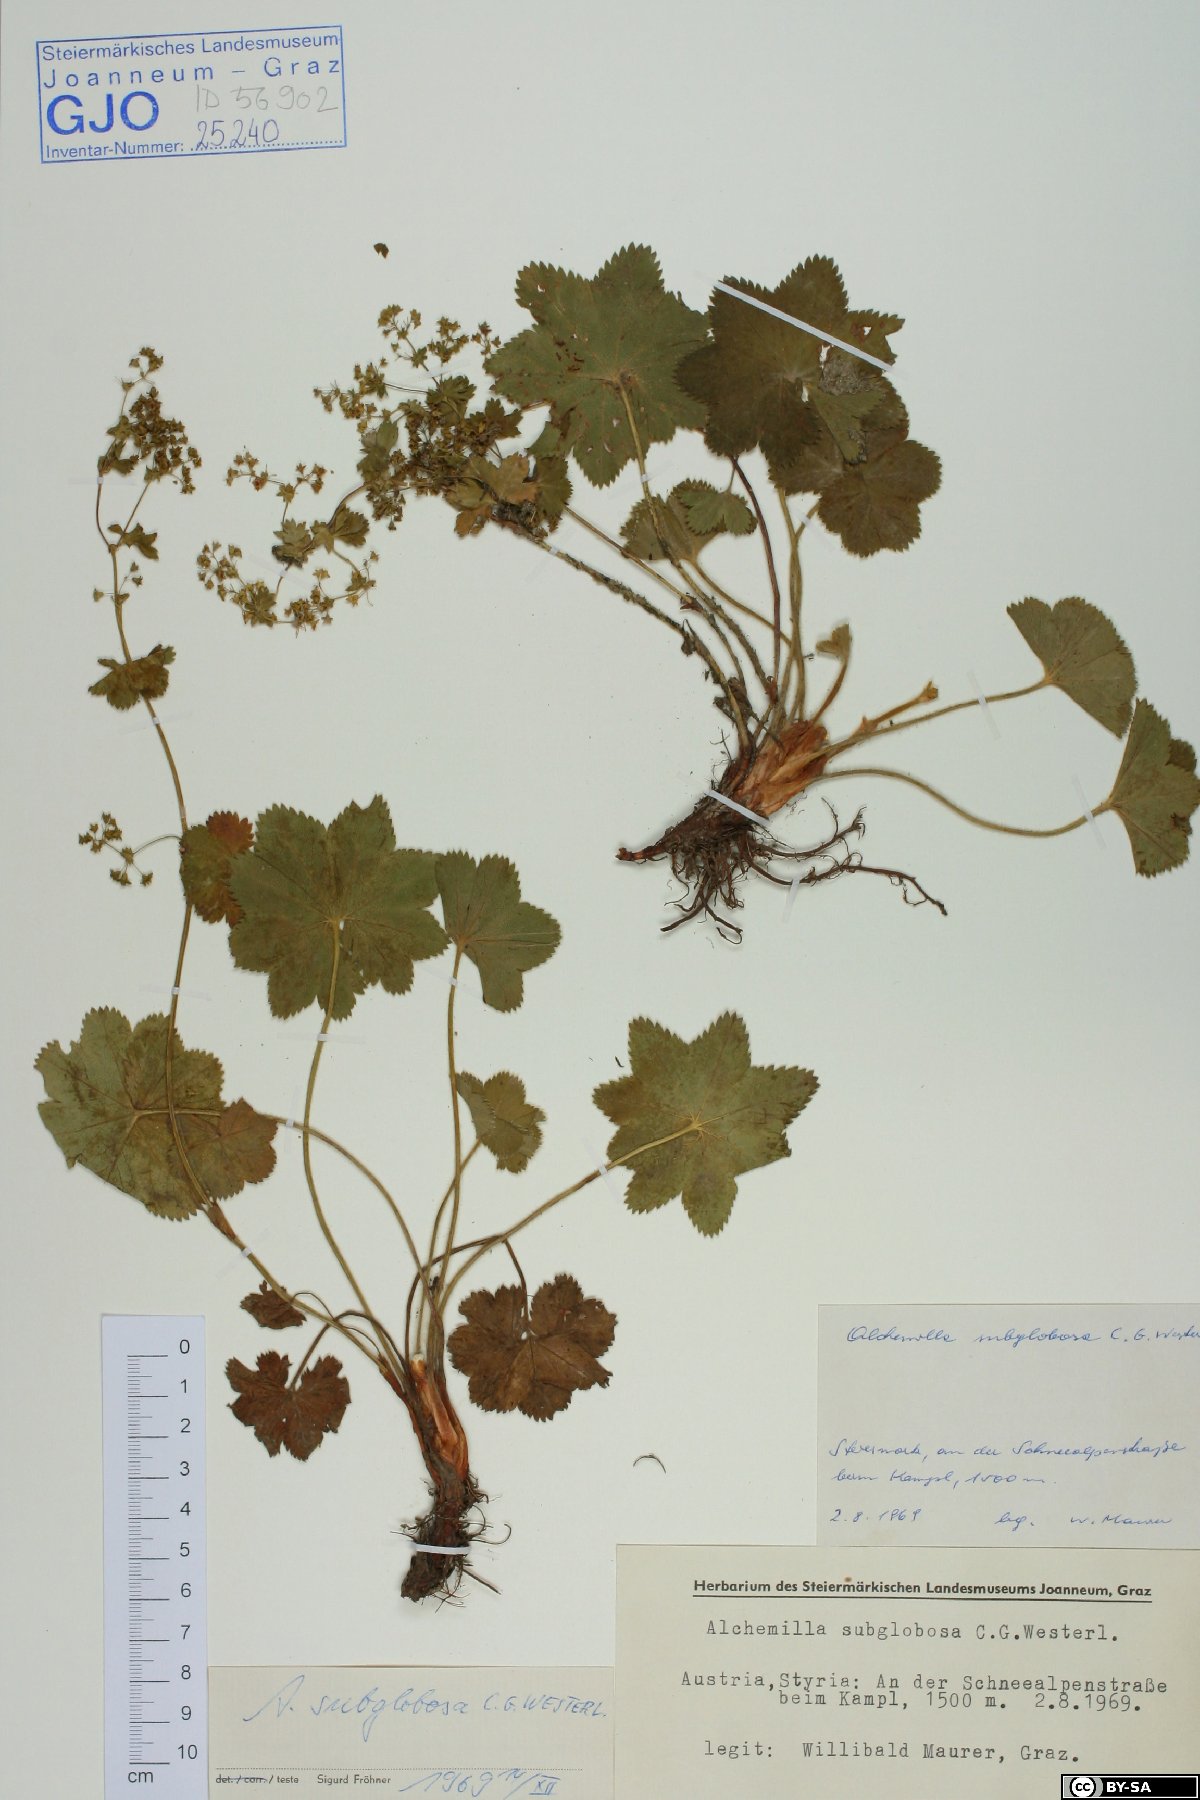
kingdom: Plantae
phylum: Tracheophyta
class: Magnoliopsida
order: Rosales
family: Rosaceae
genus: Alchemilla
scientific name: Alchemilla subglobosa
